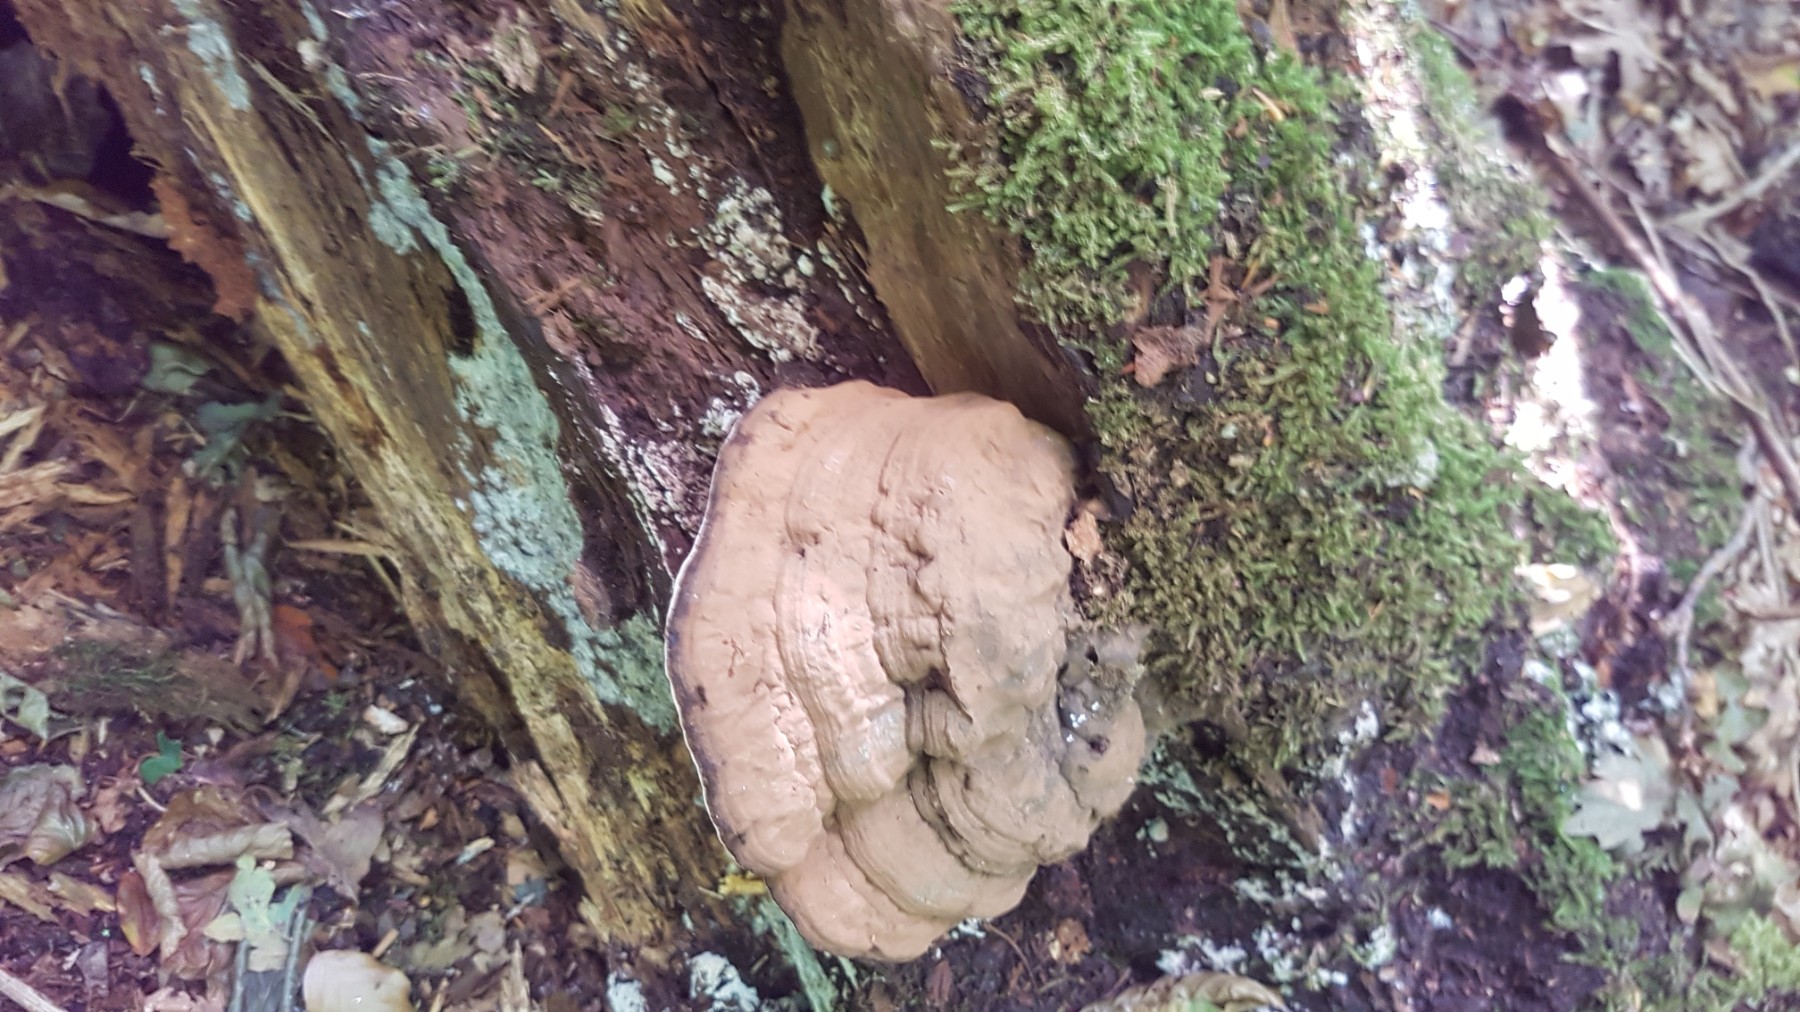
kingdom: Fungi
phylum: Basidiomycota
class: Agaricomycetes
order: Polyporales
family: Polyporaceae
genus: Ganoderma
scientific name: Ganoderma applanatum
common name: flad lakporesvamp
